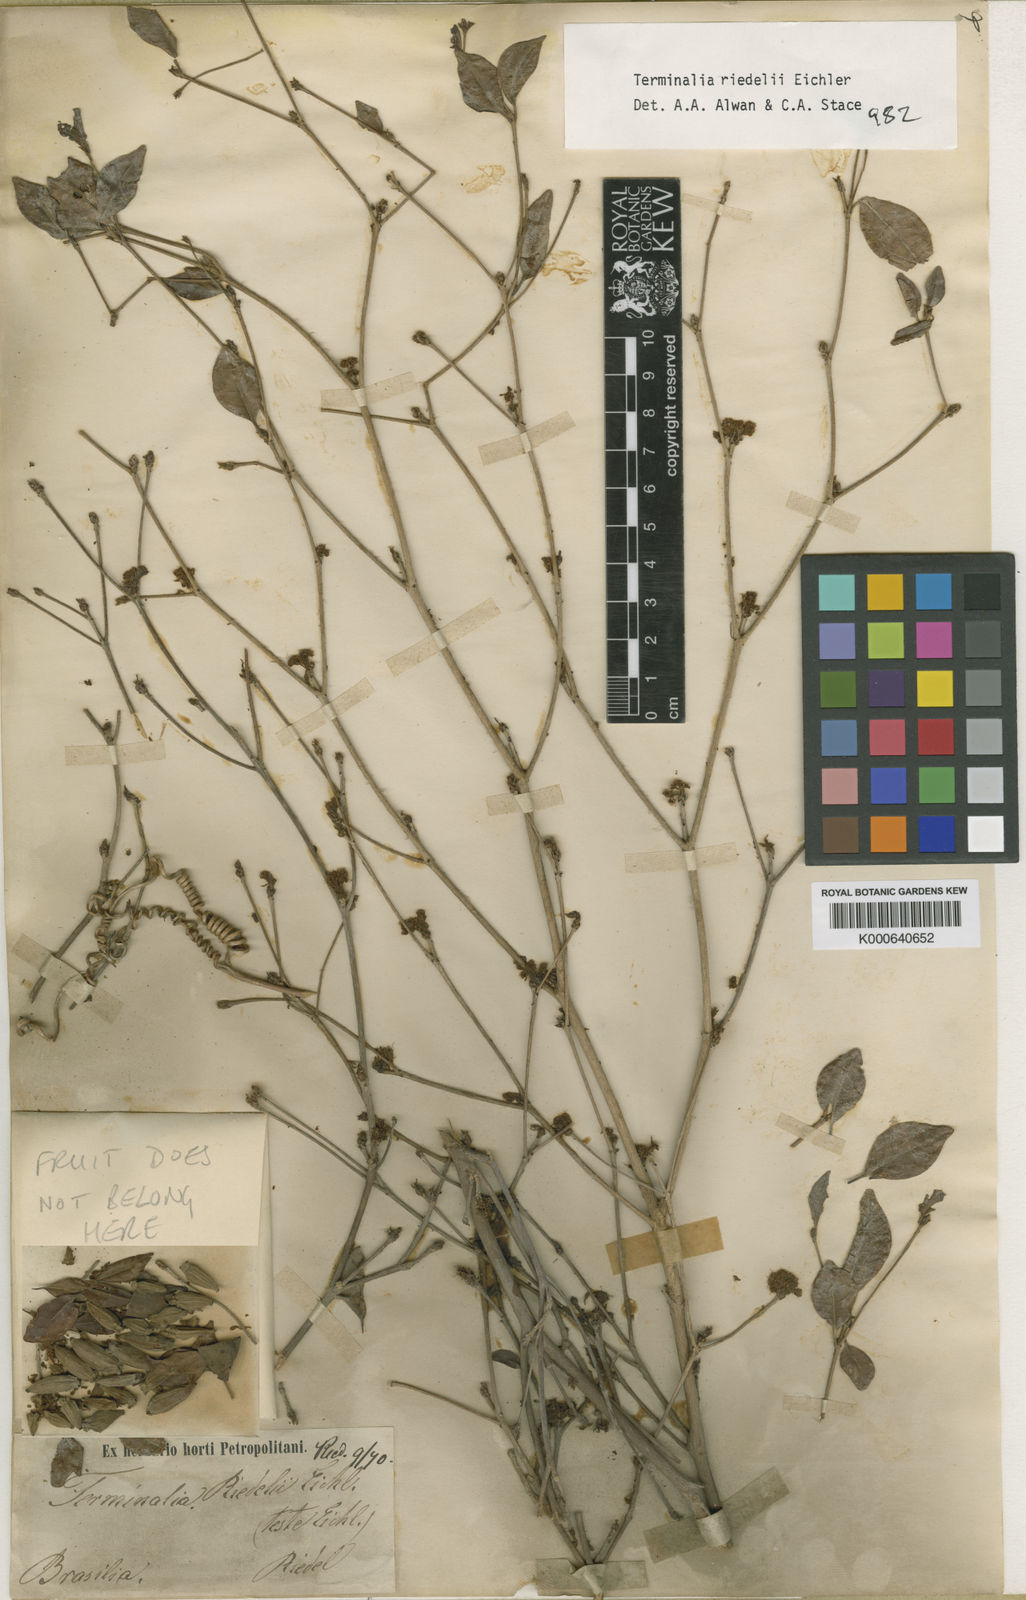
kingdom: Plantae
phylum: Tracheophyta
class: Magnoliopsida
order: Myrtales
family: Combretaceae
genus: Terminalia
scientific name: Terminalia riedelii
